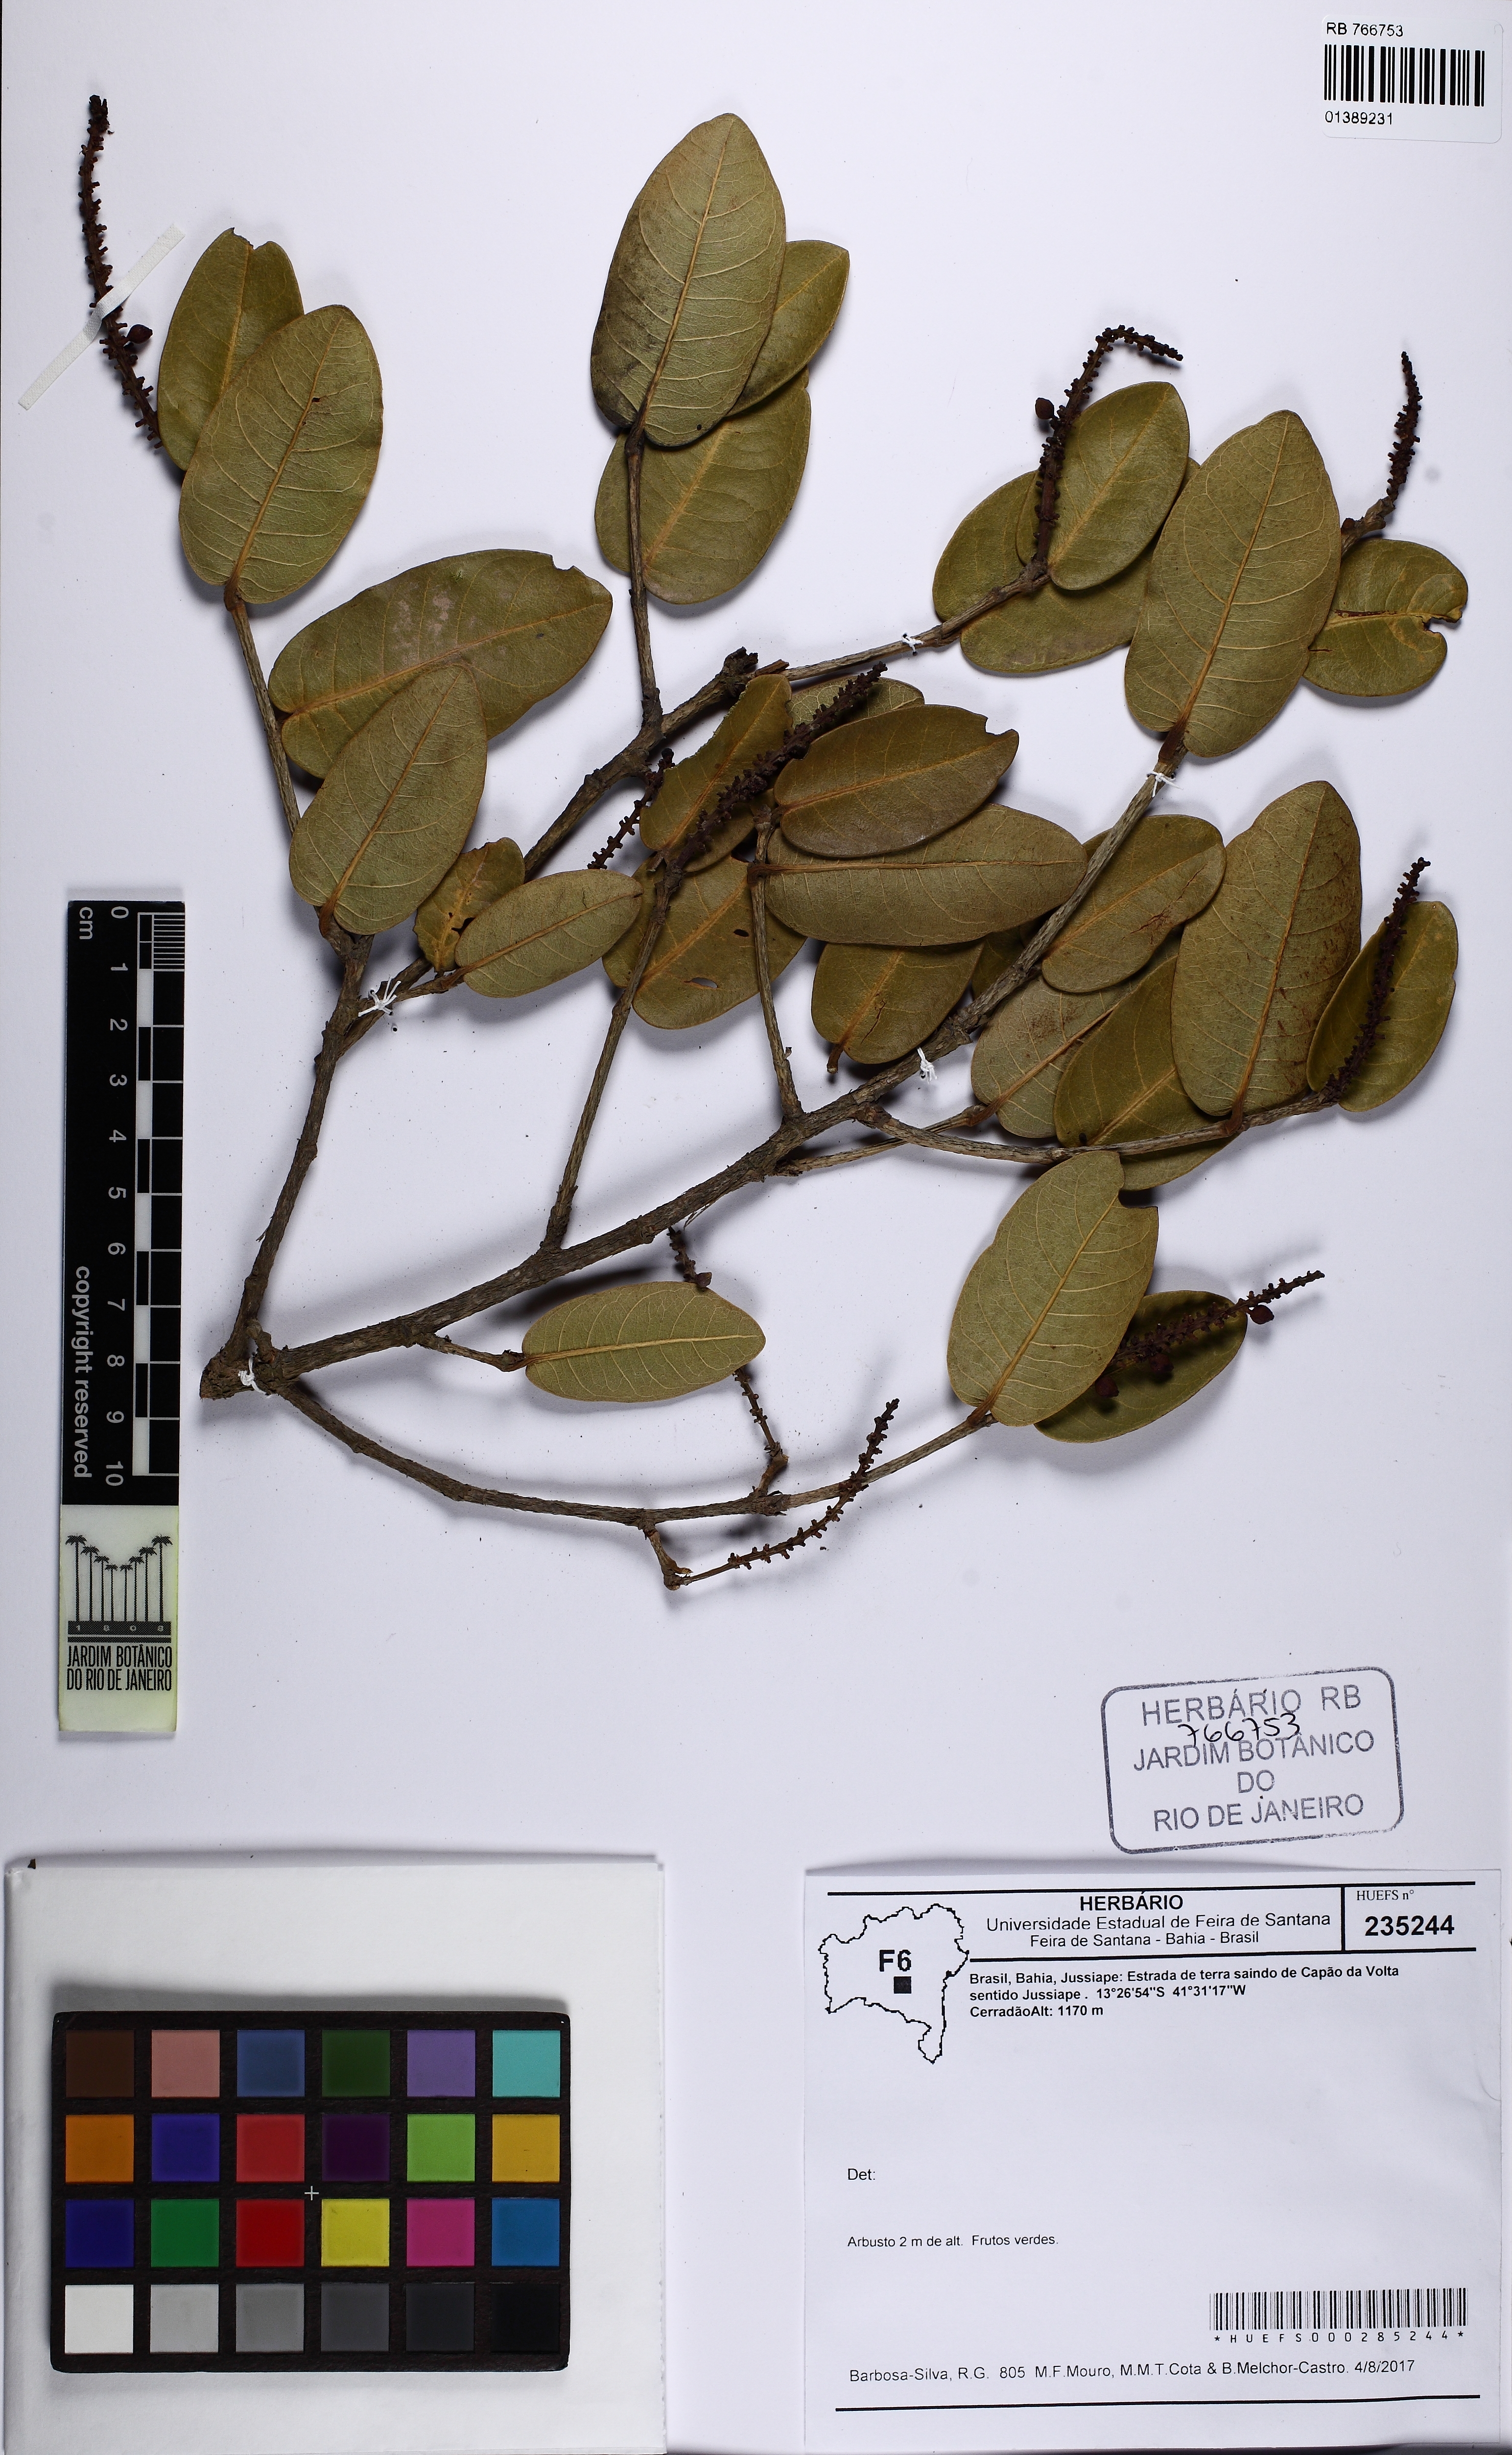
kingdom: Plantae
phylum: Tracheophyta
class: Magnoliopsida
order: Caryophyllales
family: Polygonaceae
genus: Coccoloba
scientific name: Coccoloba
